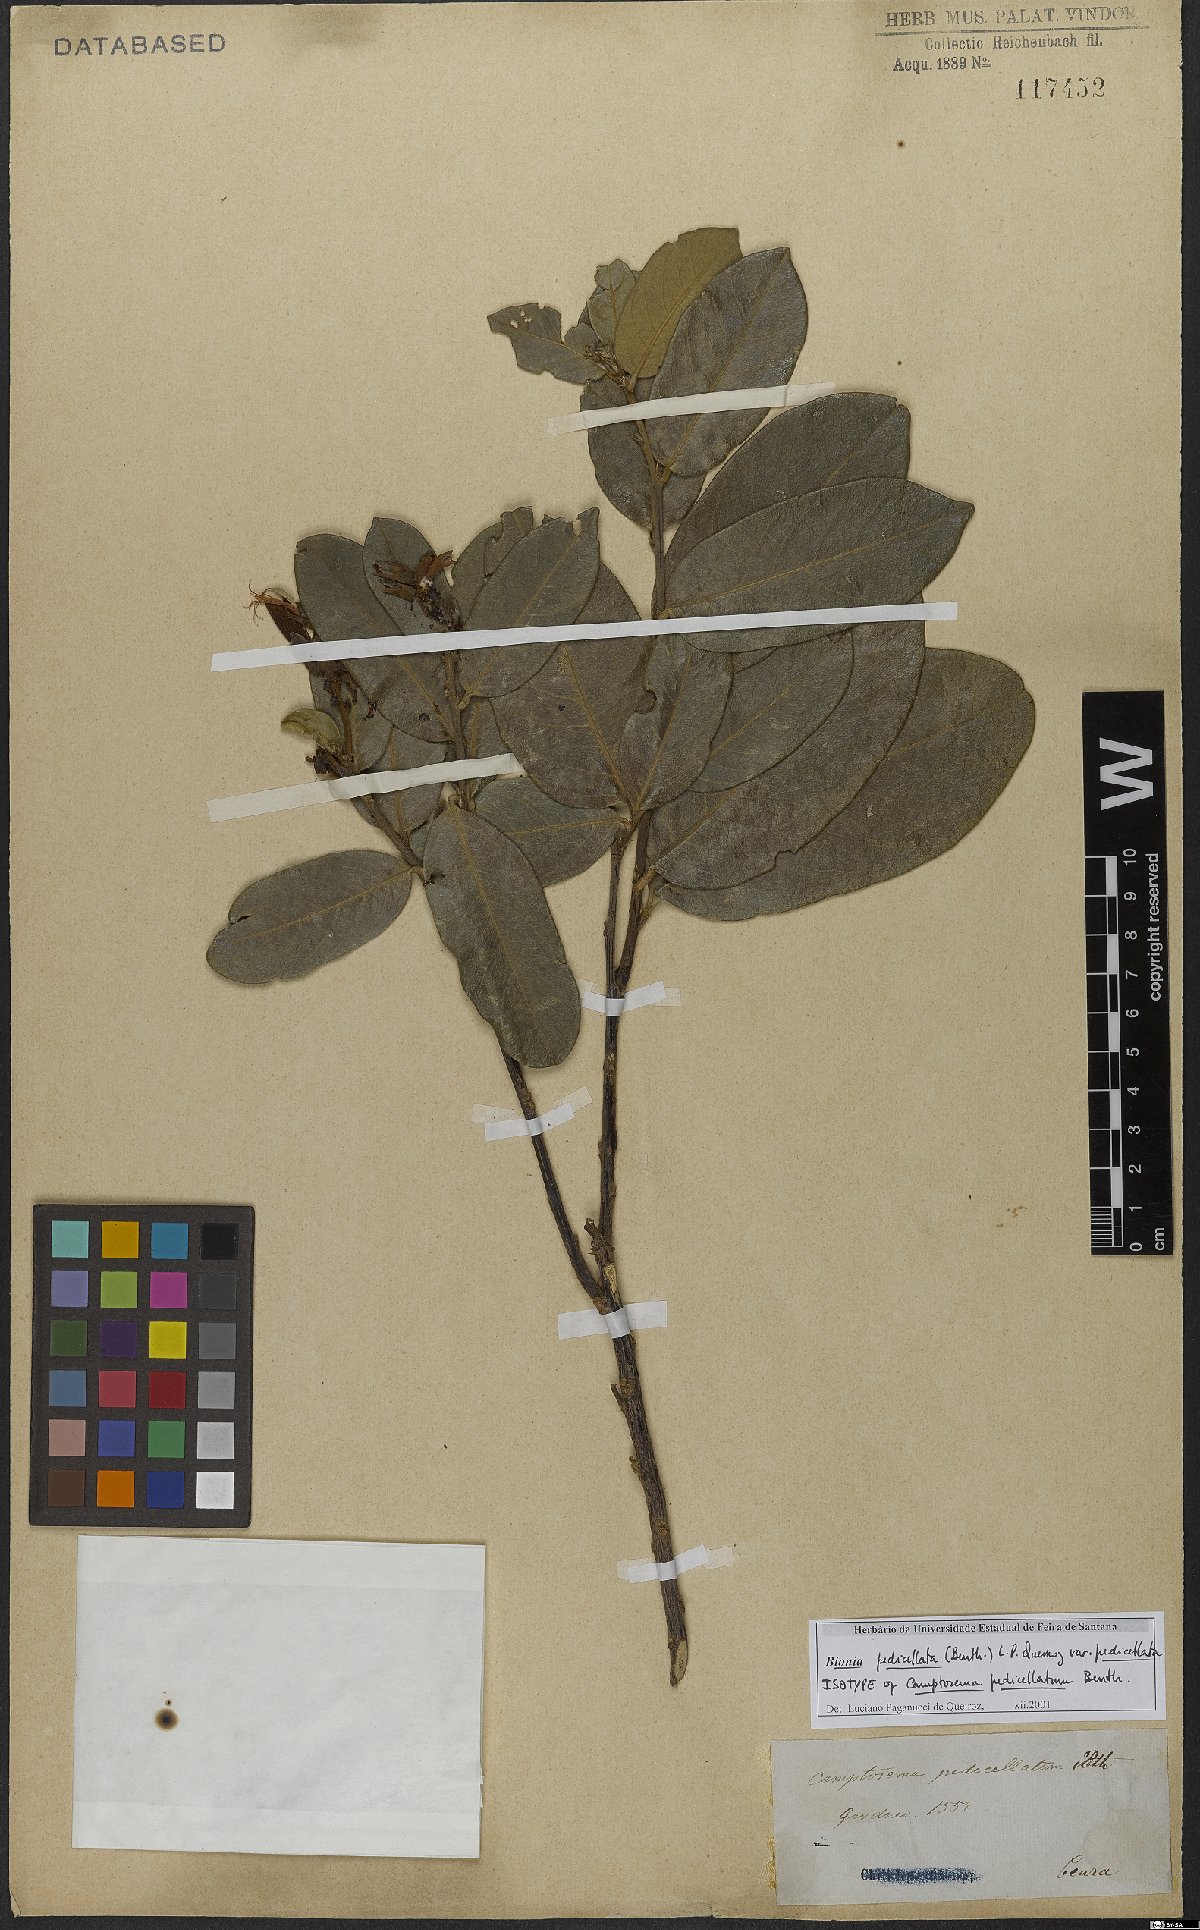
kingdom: Plantae
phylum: Tracheophyta
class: Magnoliopsida
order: Fabales
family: Fabaceae
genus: Camptosema
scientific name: Camptosema pedicellatum
